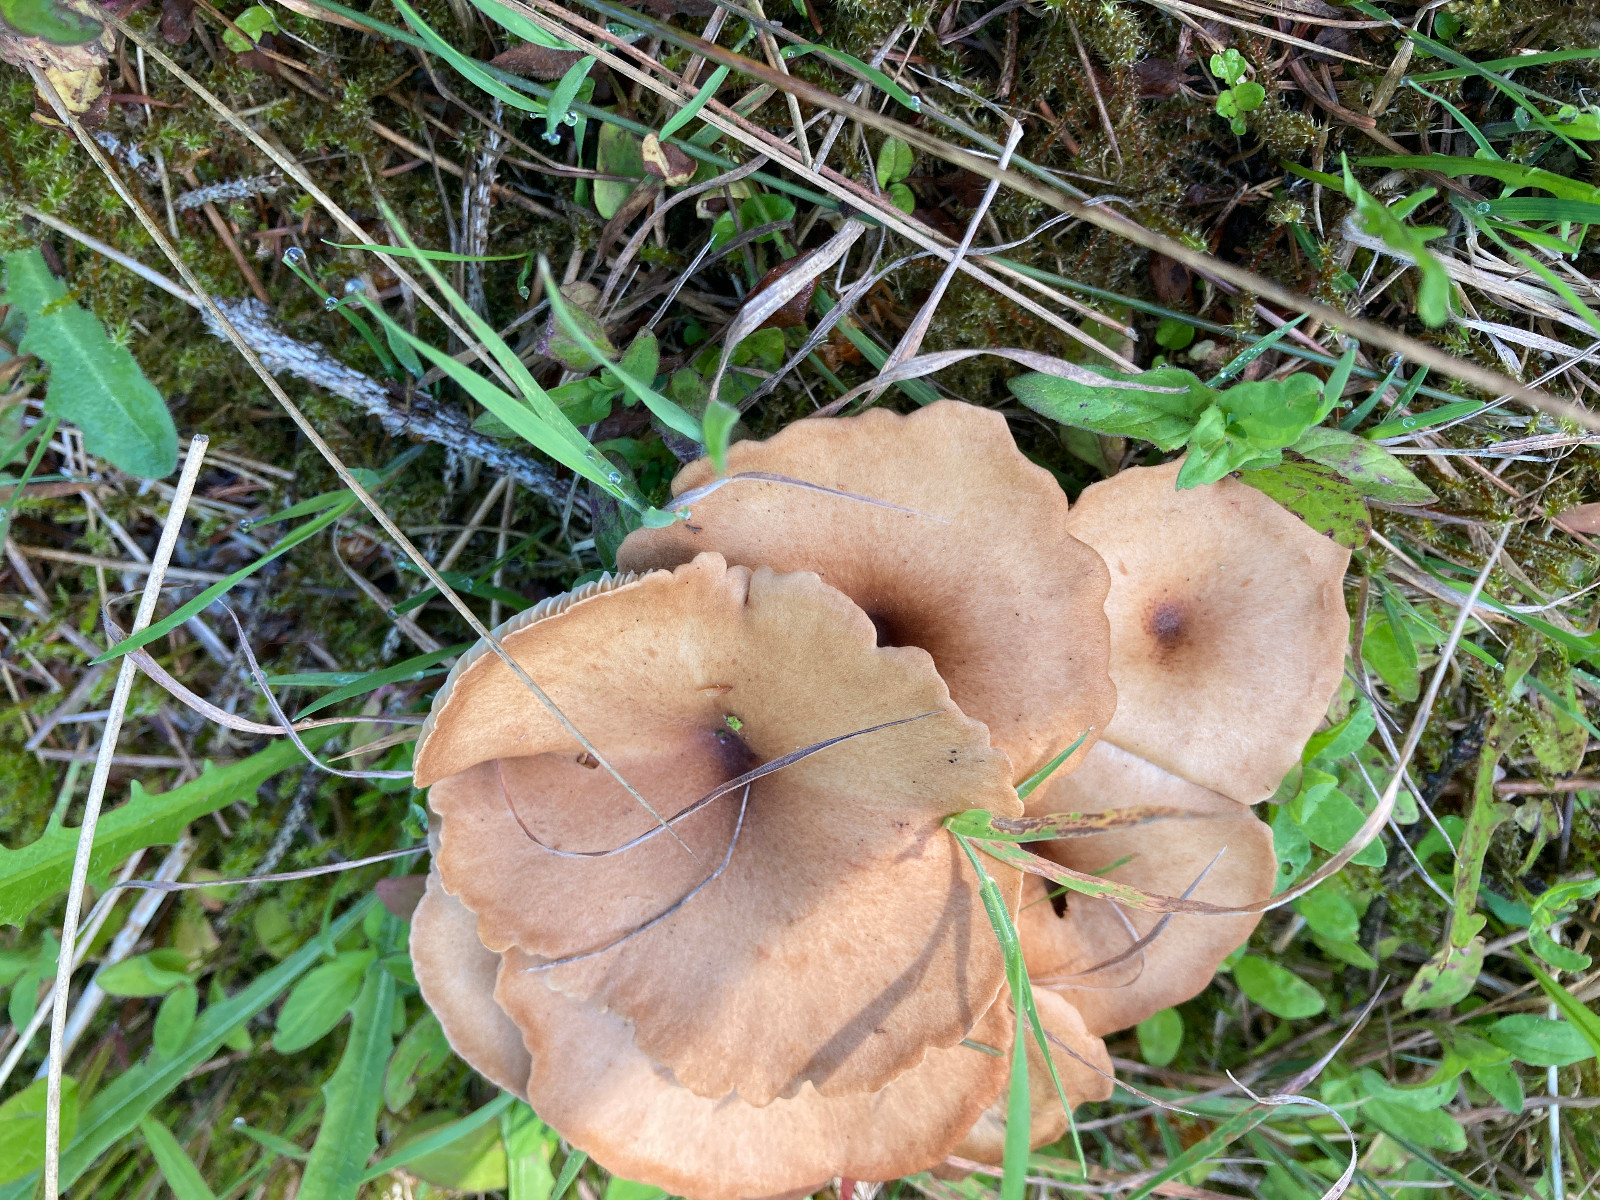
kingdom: Fungi
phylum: Basidiomycota
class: Agaricomycetes
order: Agaricales
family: Tricholomataceae
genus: Infundibulicybe
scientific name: Infundibulicybe squamulosa
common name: småskællet tragthat
